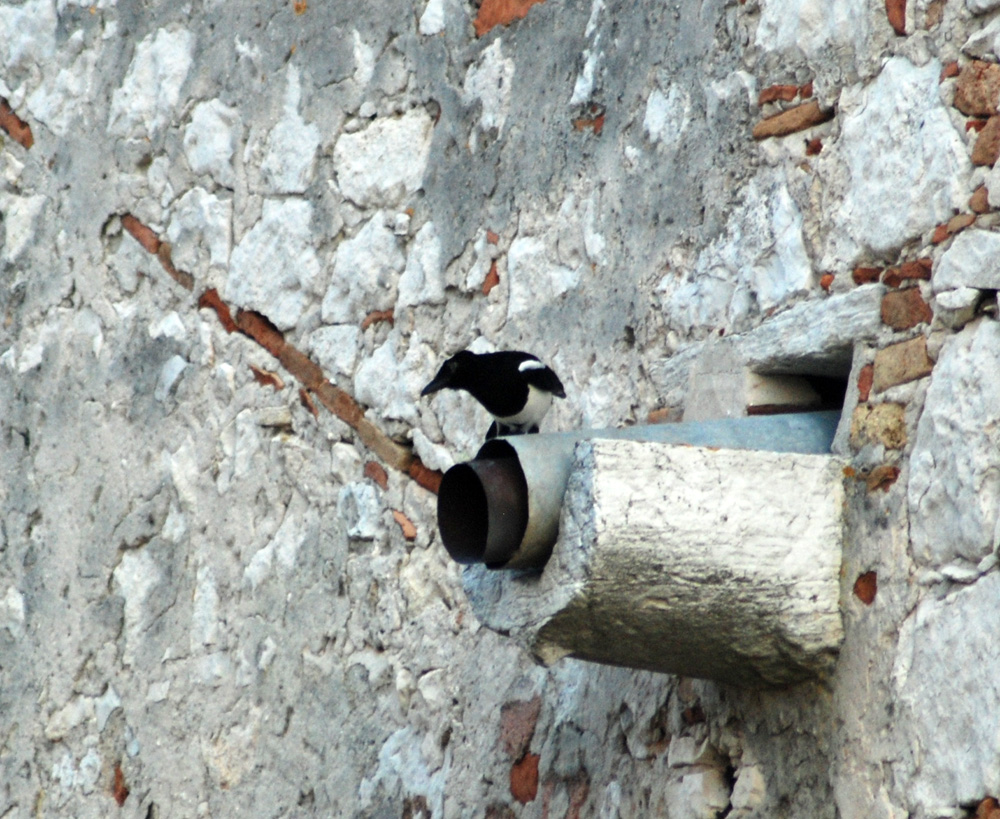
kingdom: Animalia
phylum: Chordata
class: Aves
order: Passeriformes
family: Corvidae
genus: Pica
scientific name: Pica pica
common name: Eurasian magpie
